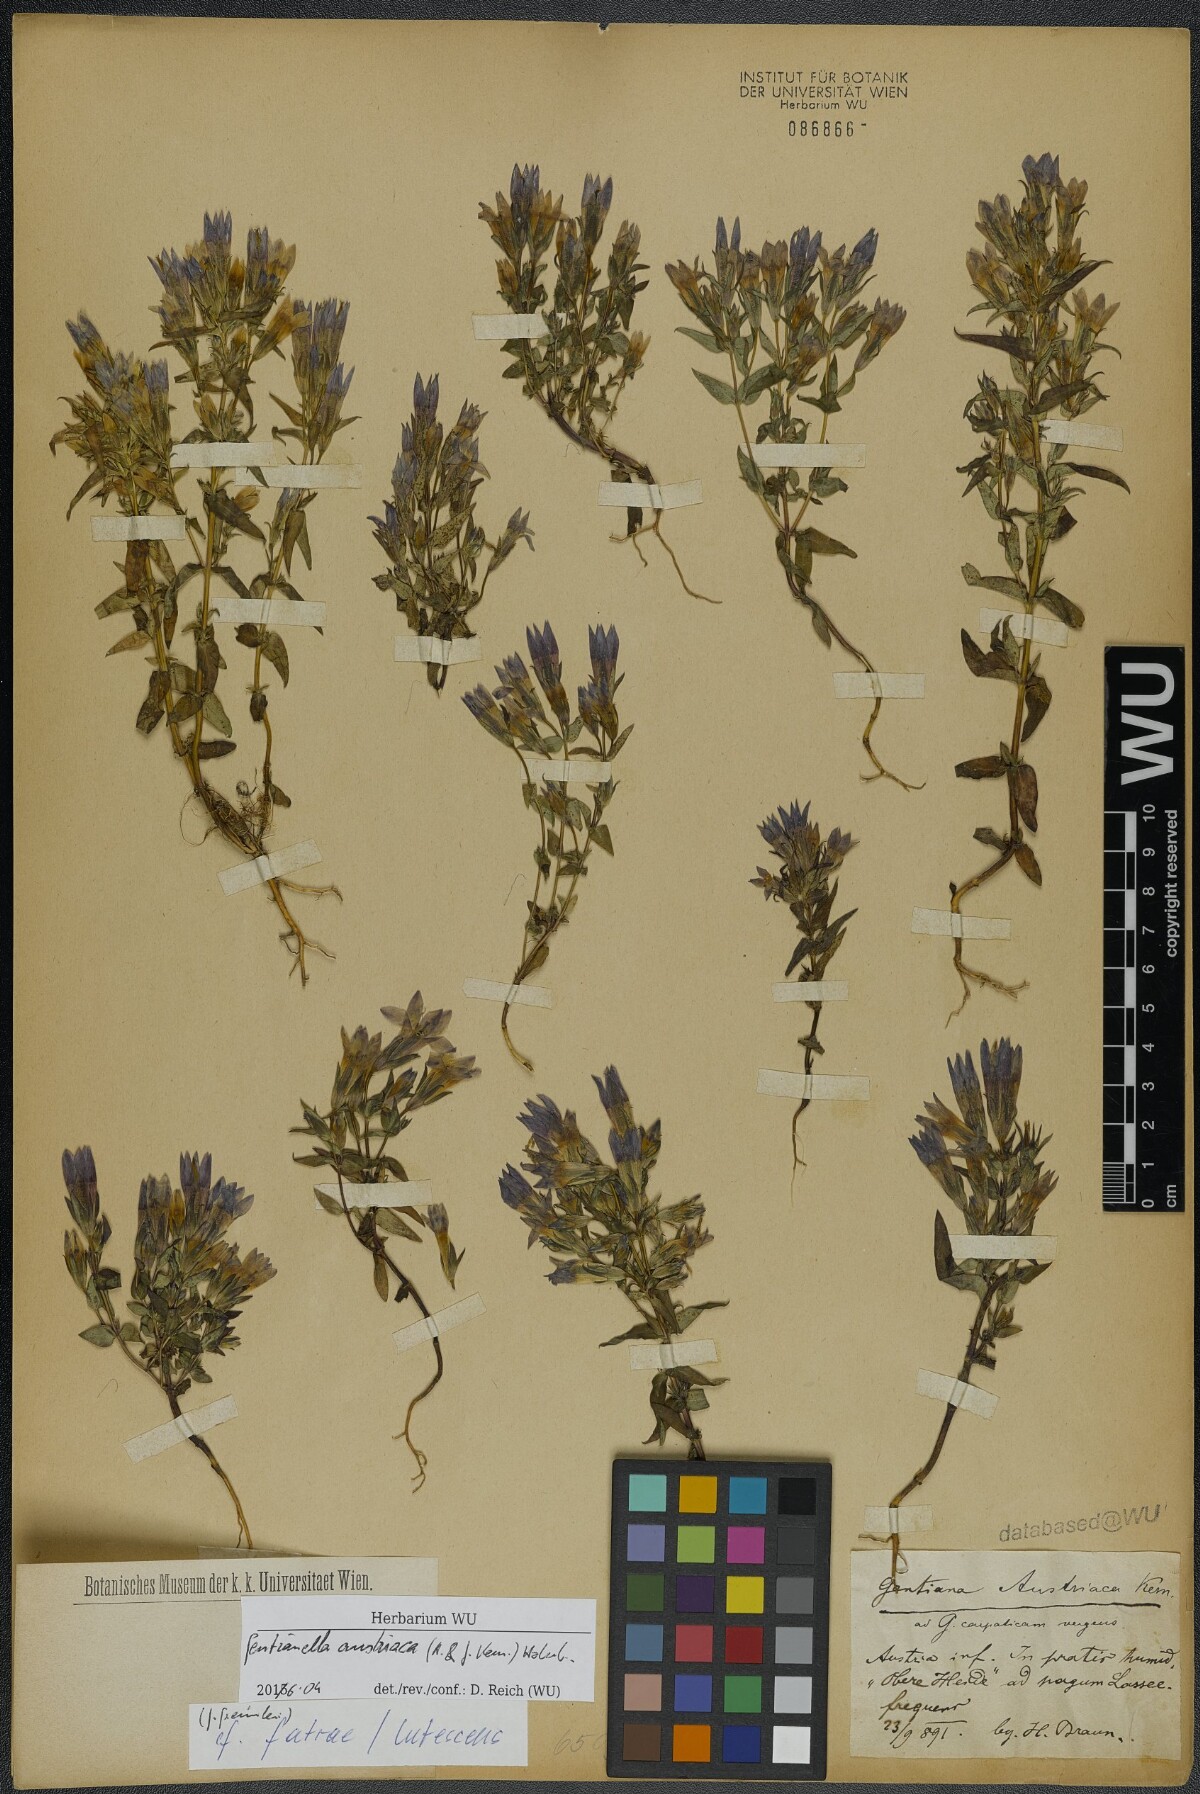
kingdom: Plantae
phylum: Tracheophyta
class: Magnoliopsida
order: Gentianales
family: Gentianaceae
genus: Gentianella
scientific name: Gentianella austriaca
